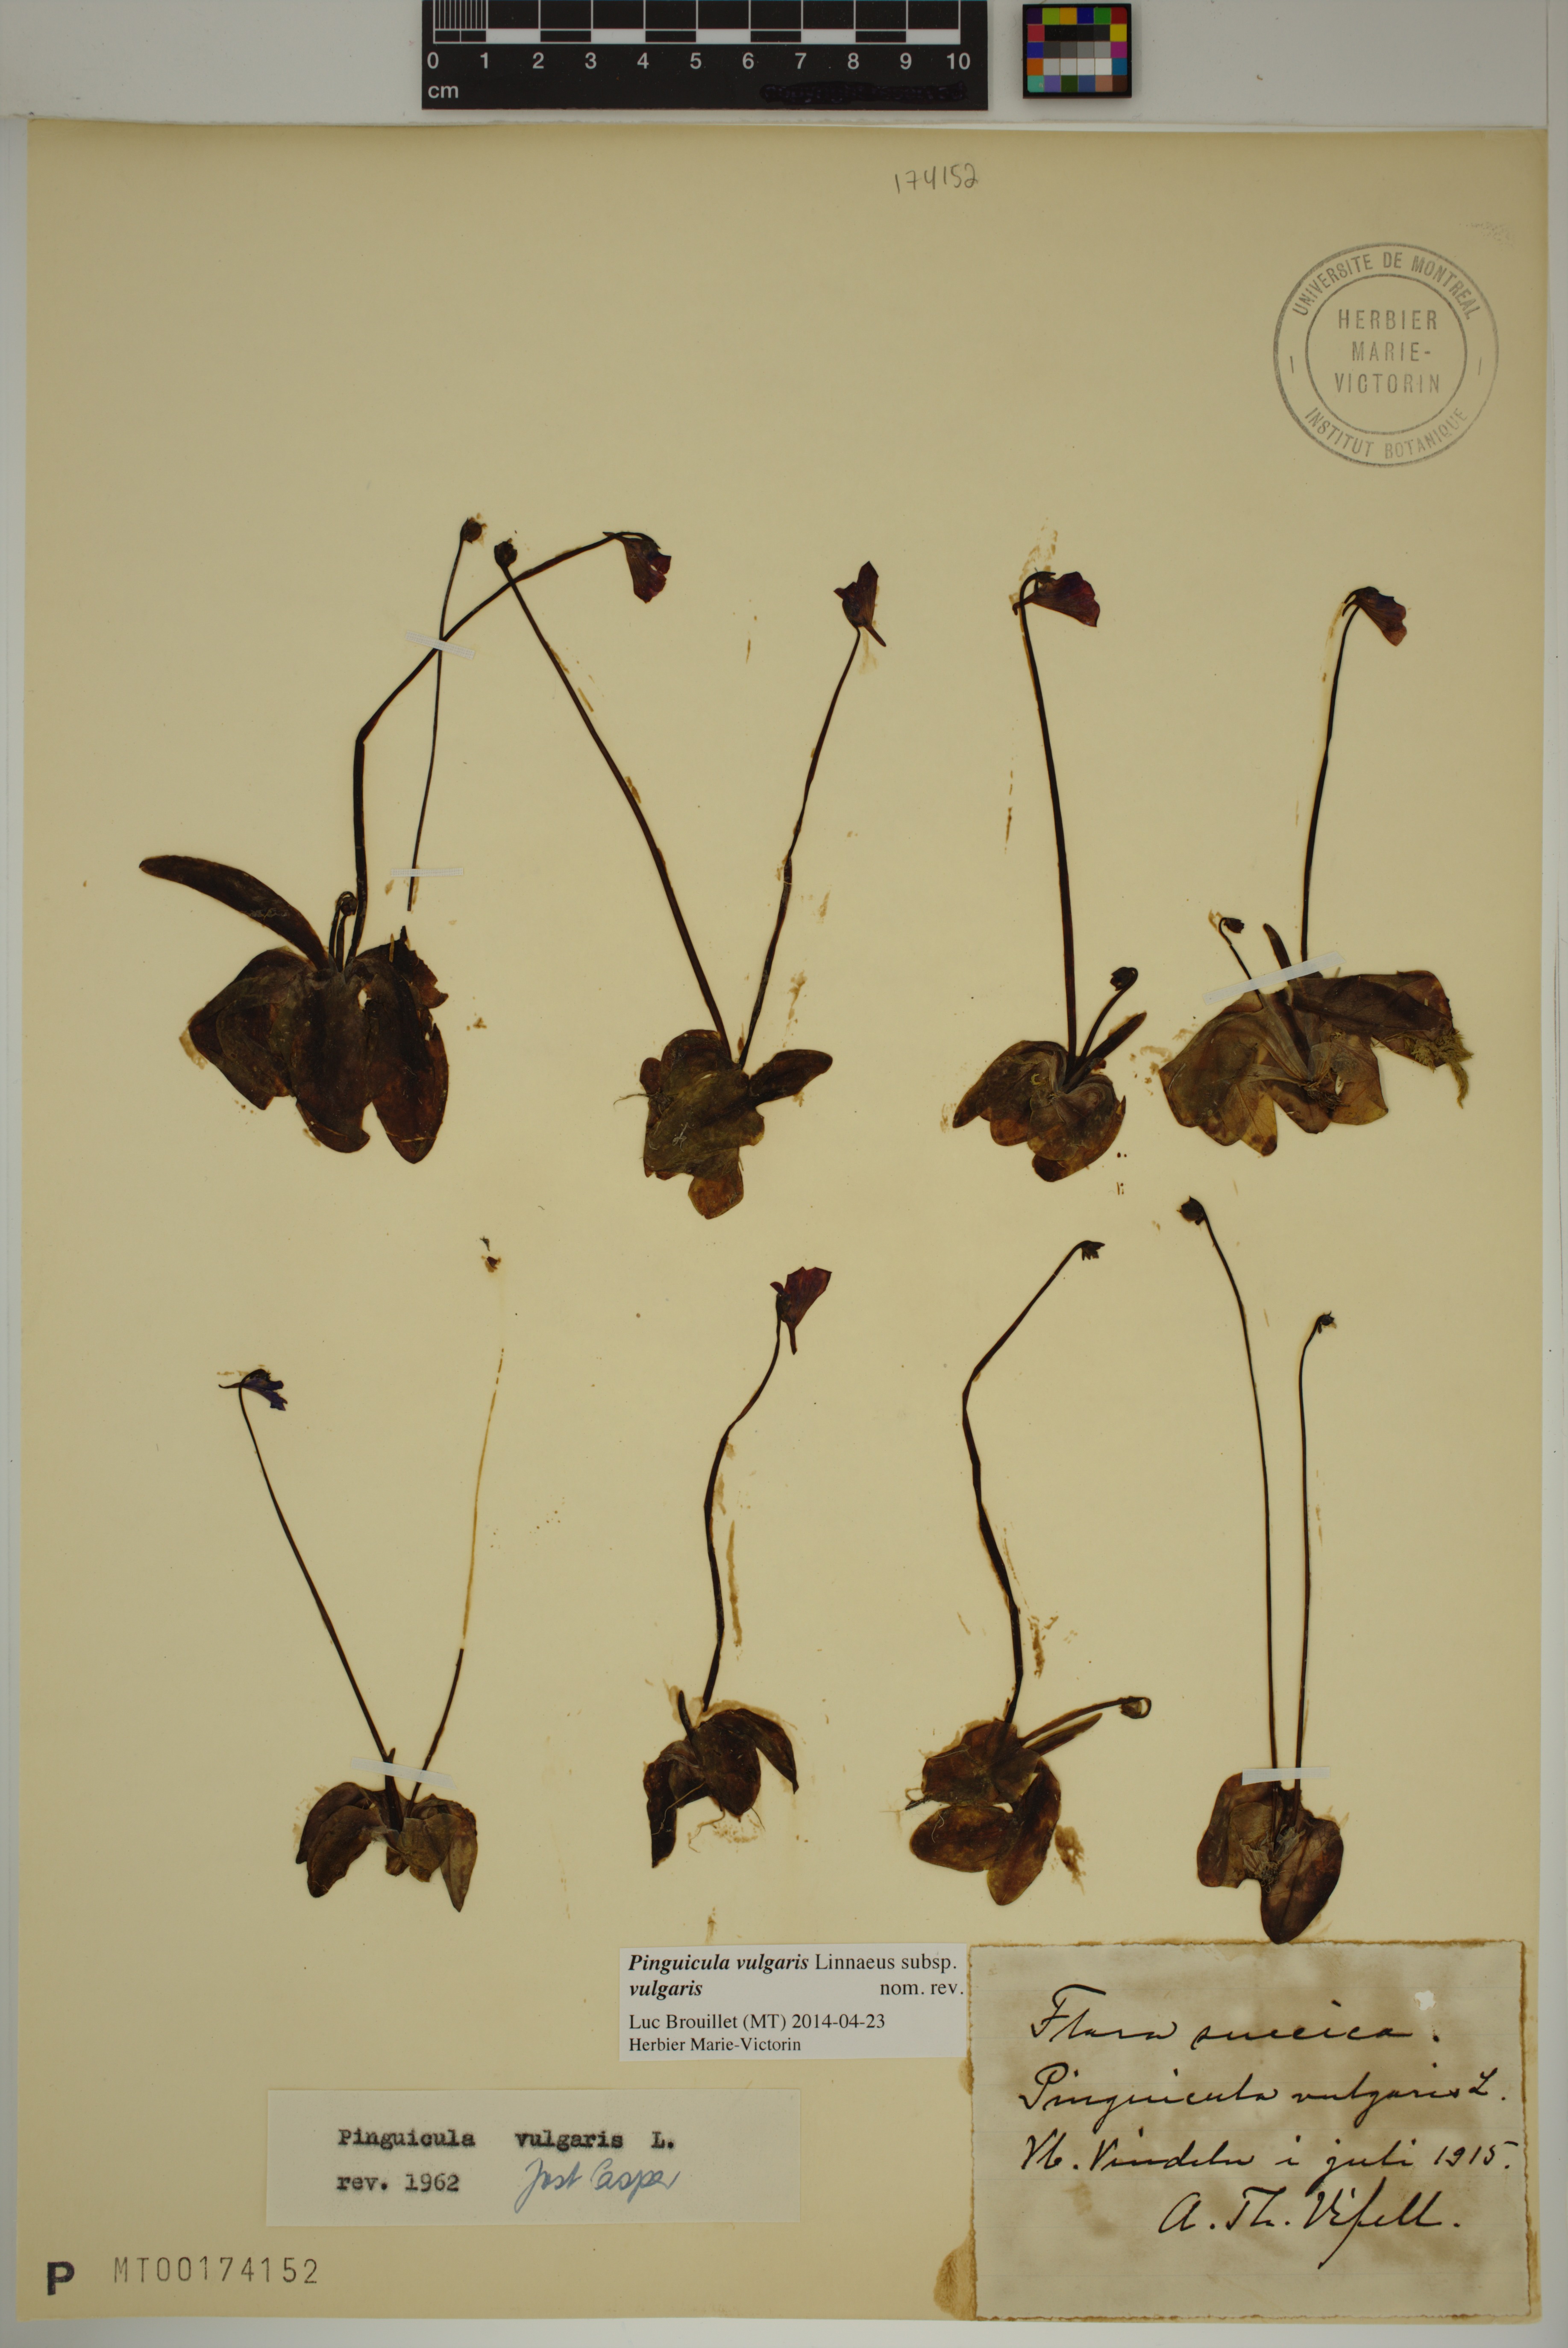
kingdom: Plantae
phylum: Tracheophyta
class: Magnoliopsida
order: Lamiales
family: Lentibulariaceae
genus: Pinguicula
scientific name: Pinguicula vulgaris
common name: Common butterwort
